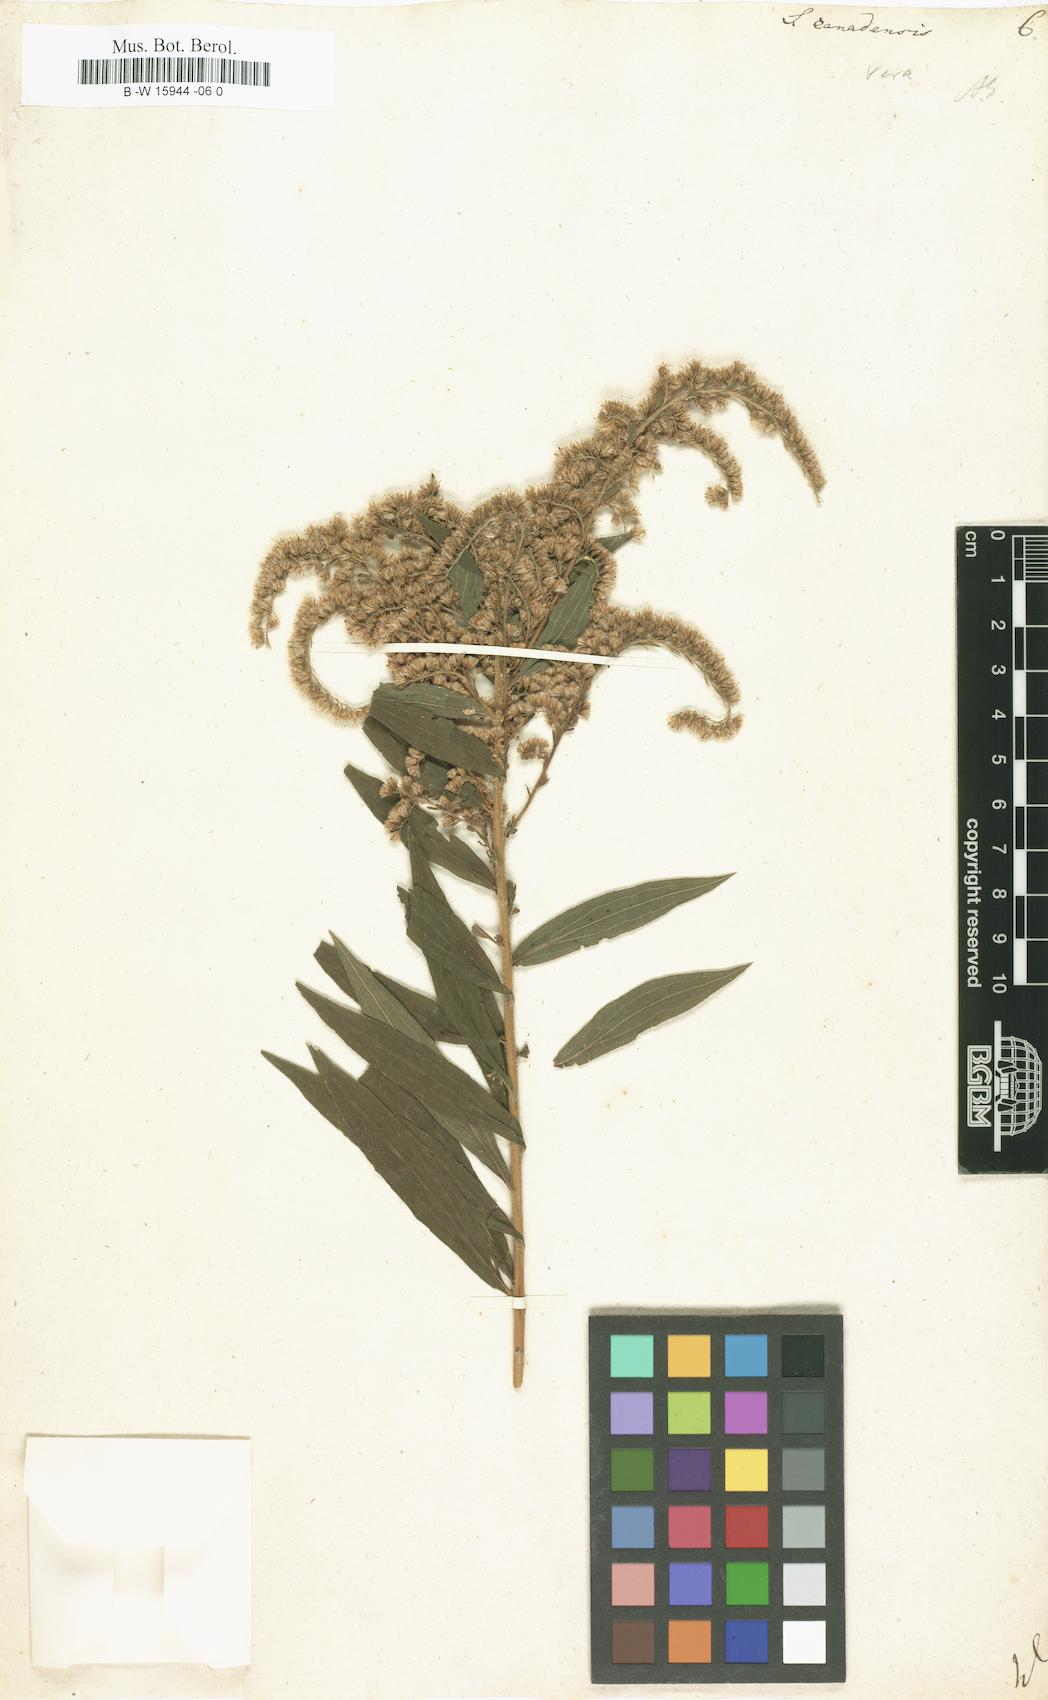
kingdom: Plantae
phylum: Tracheophyta
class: Magnoliopsida
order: Asterales
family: Asteraceae
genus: Solidago
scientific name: Solidago canadensis
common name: Canada goldenrod
